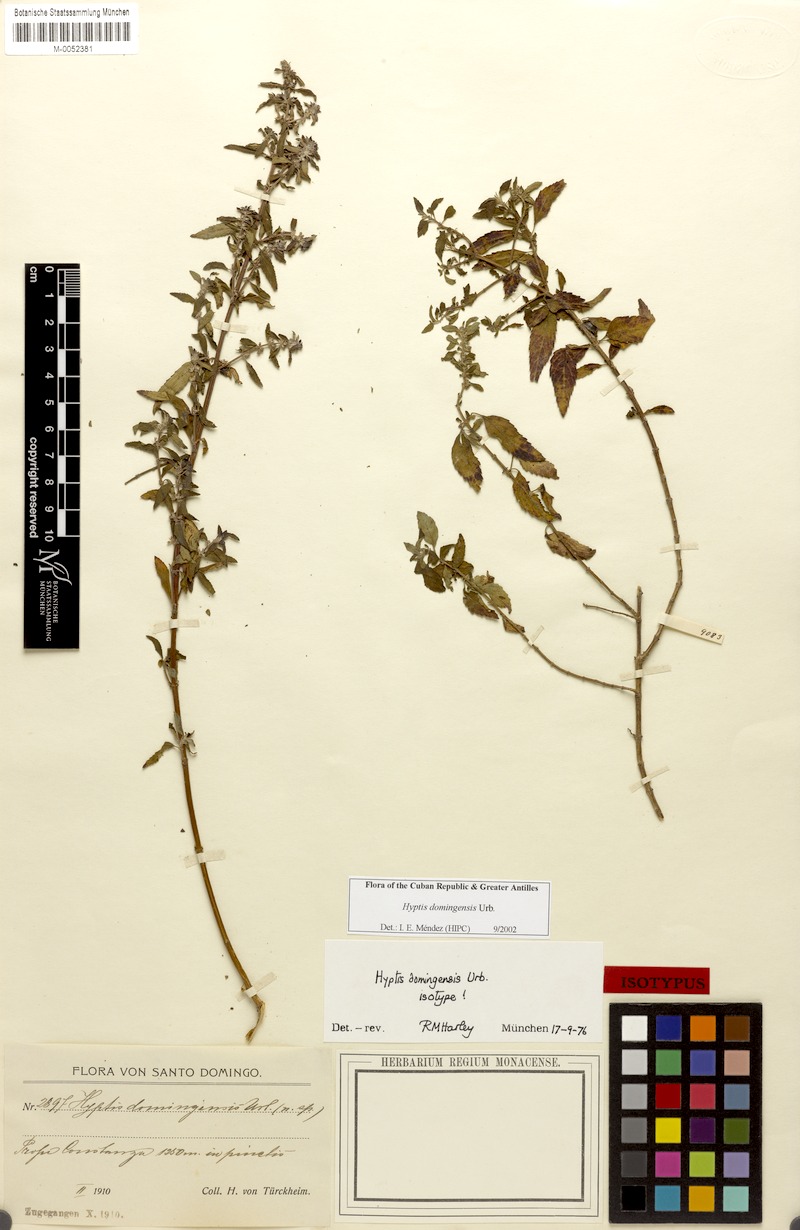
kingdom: Plantae
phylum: Tracheophyta
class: Magnoliopsida
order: Lamiales
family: Lamiaceae
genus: Condea
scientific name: Condea domingensis
